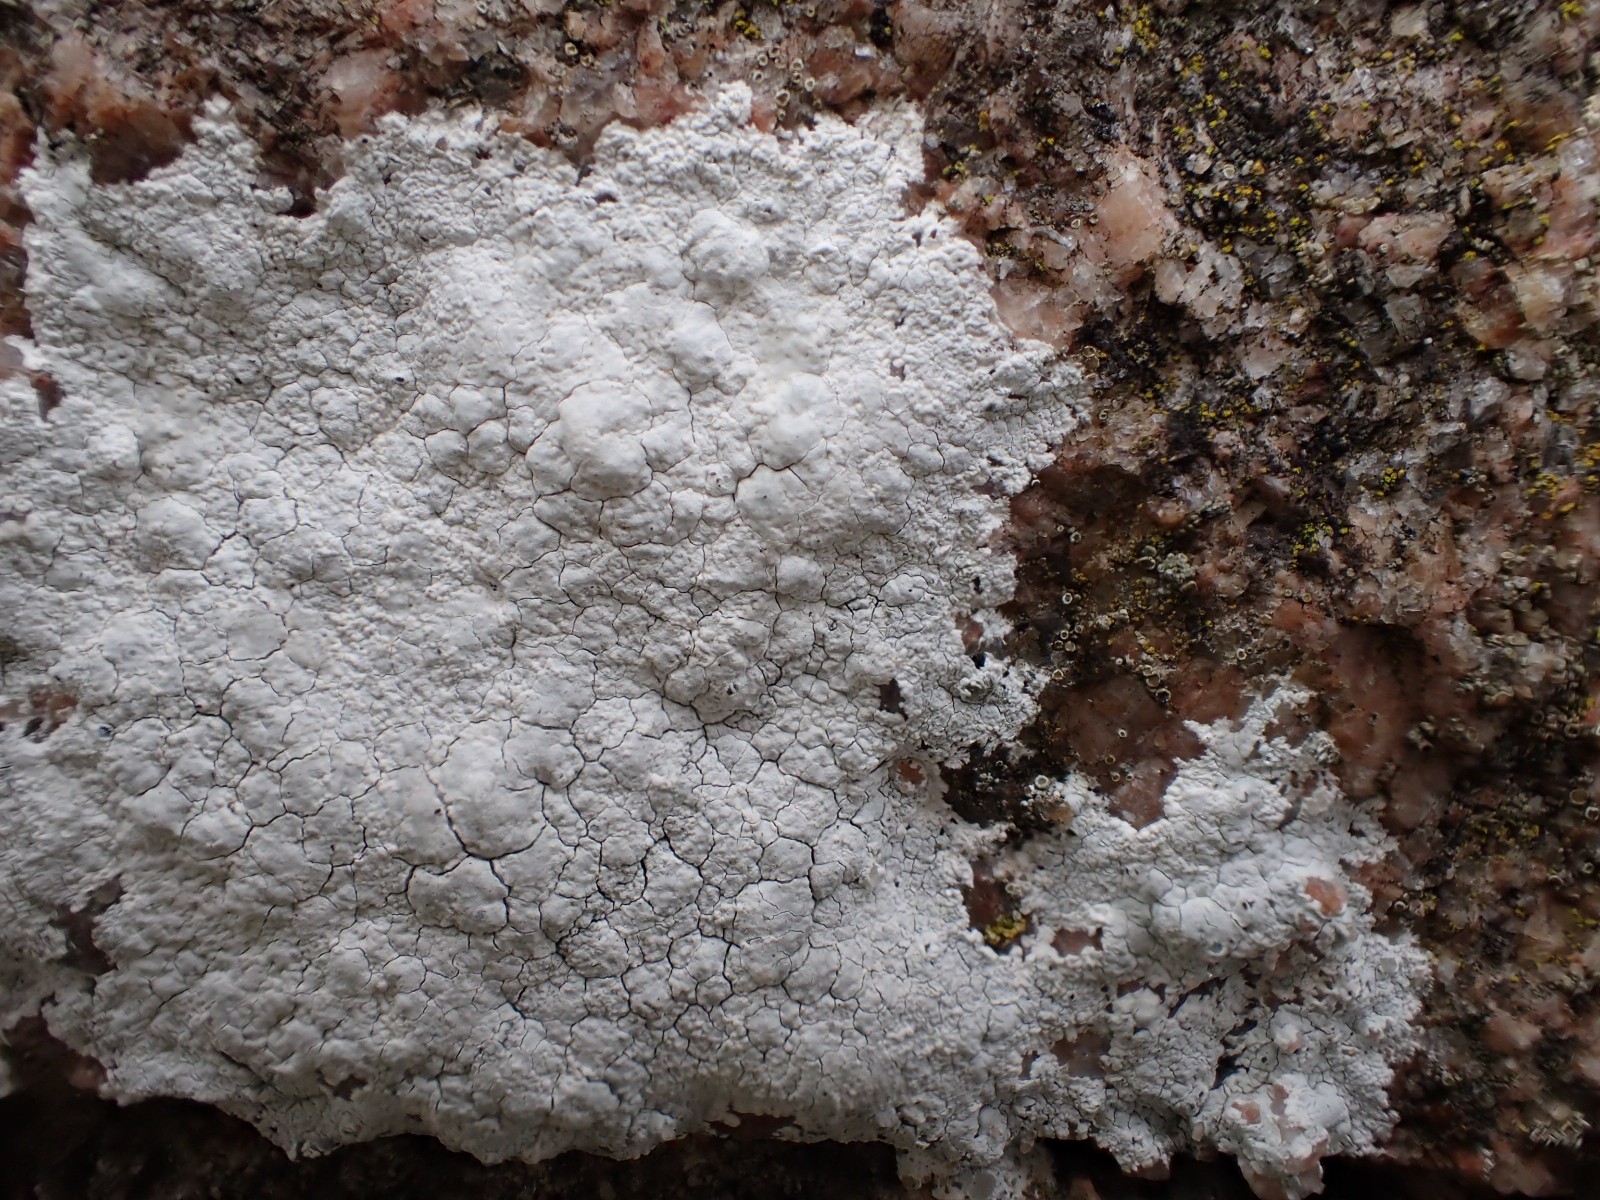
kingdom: Fungi
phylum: Ascomycota
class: Lecanoromycetes
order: Lecanorales
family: Lecanoraceae
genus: Glaucomaria
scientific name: Glaucomaria rupicola
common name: stengærde-kantskivelav
